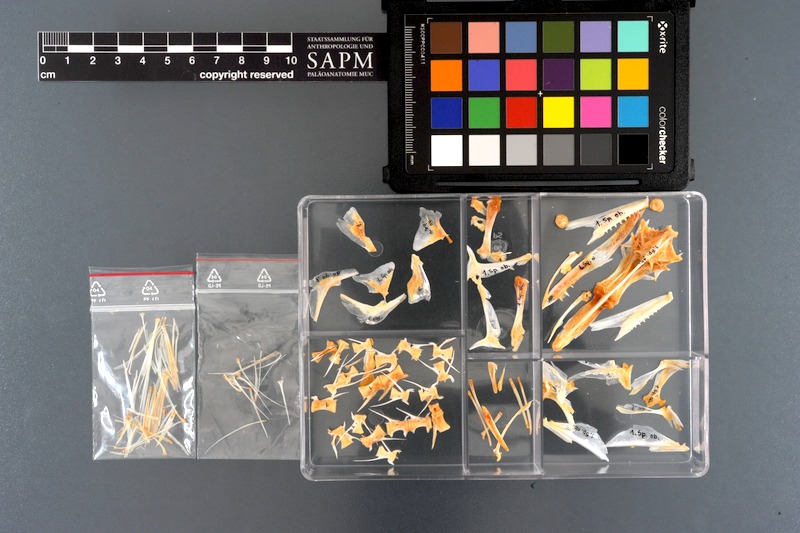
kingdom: Animalia
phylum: Chordata
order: Perciformes
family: Sphyraenidae
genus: Sphyraena
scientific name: Sphyraena obtusata
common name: Obtuse barracuda
